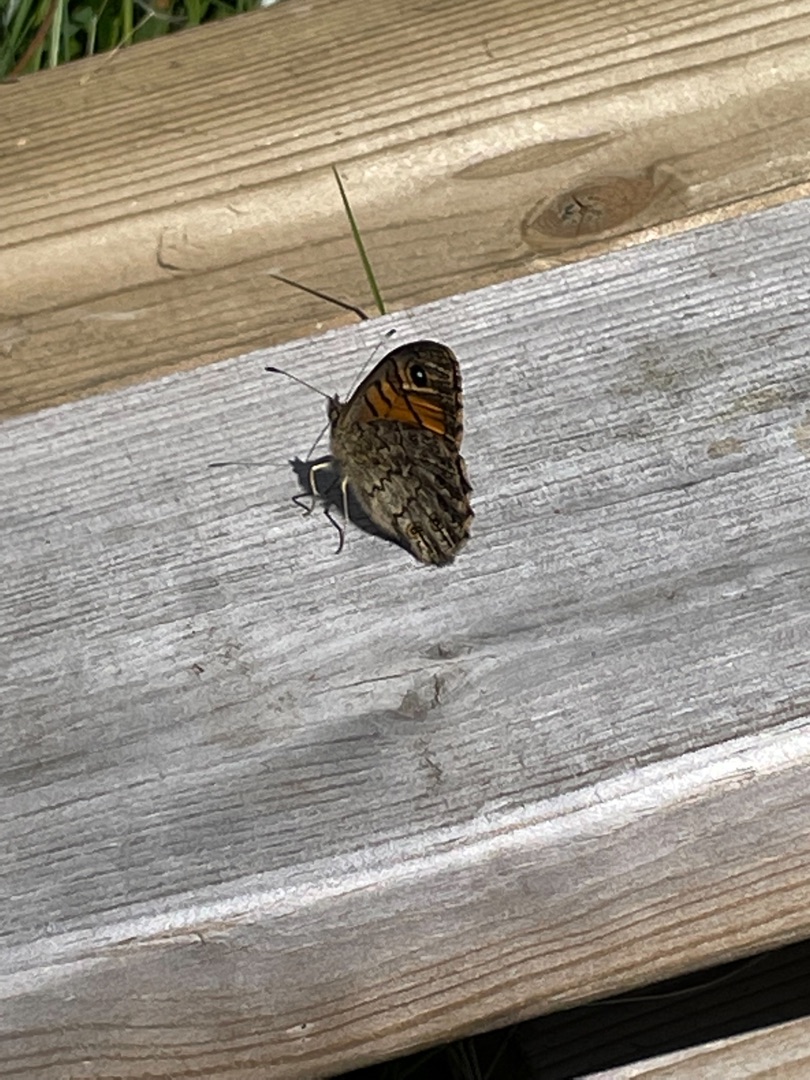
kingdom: Animalia
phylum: Arthropoda
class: Insecta
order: Lepidoptera
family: Nymphalidae
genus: Pararge
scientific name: Pararge Lasiommata megera
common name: Vejrandøje
